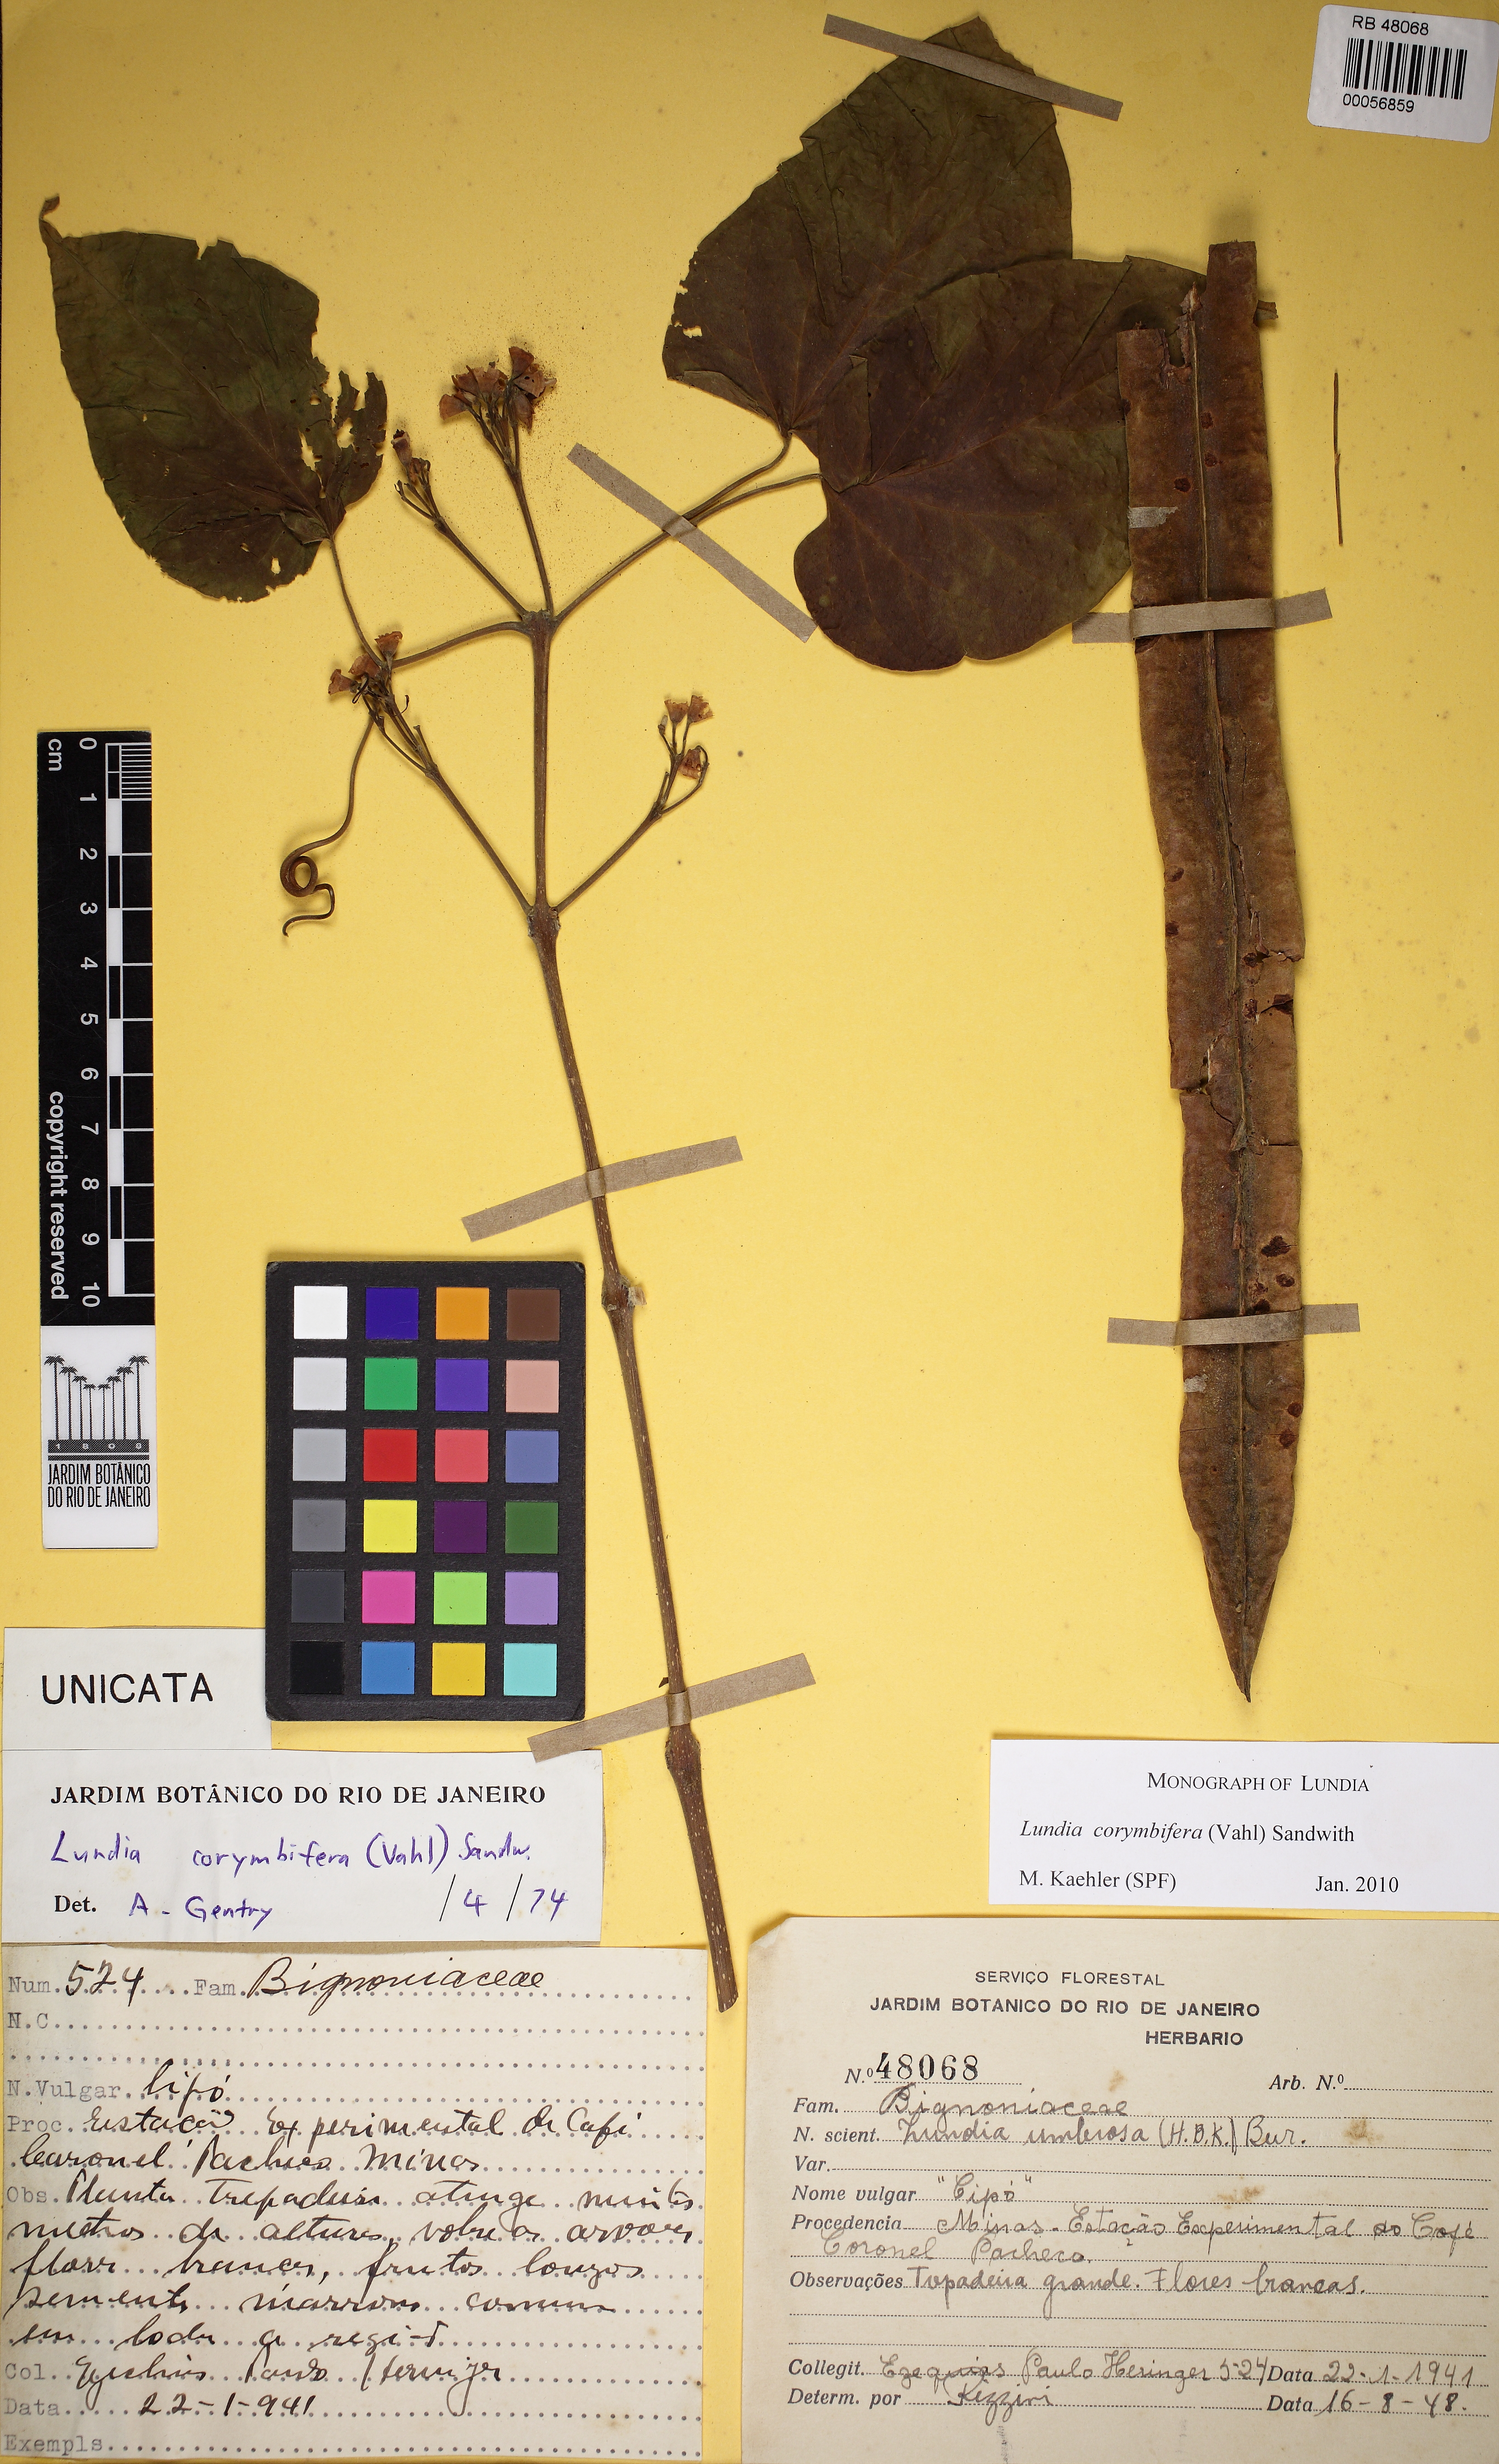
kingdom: Plantae
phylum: Tracheophyta
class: Magnoliopsida
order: Lamiales
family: Bignoniaceae
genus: Lundia
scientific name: Lundia corymbifera
